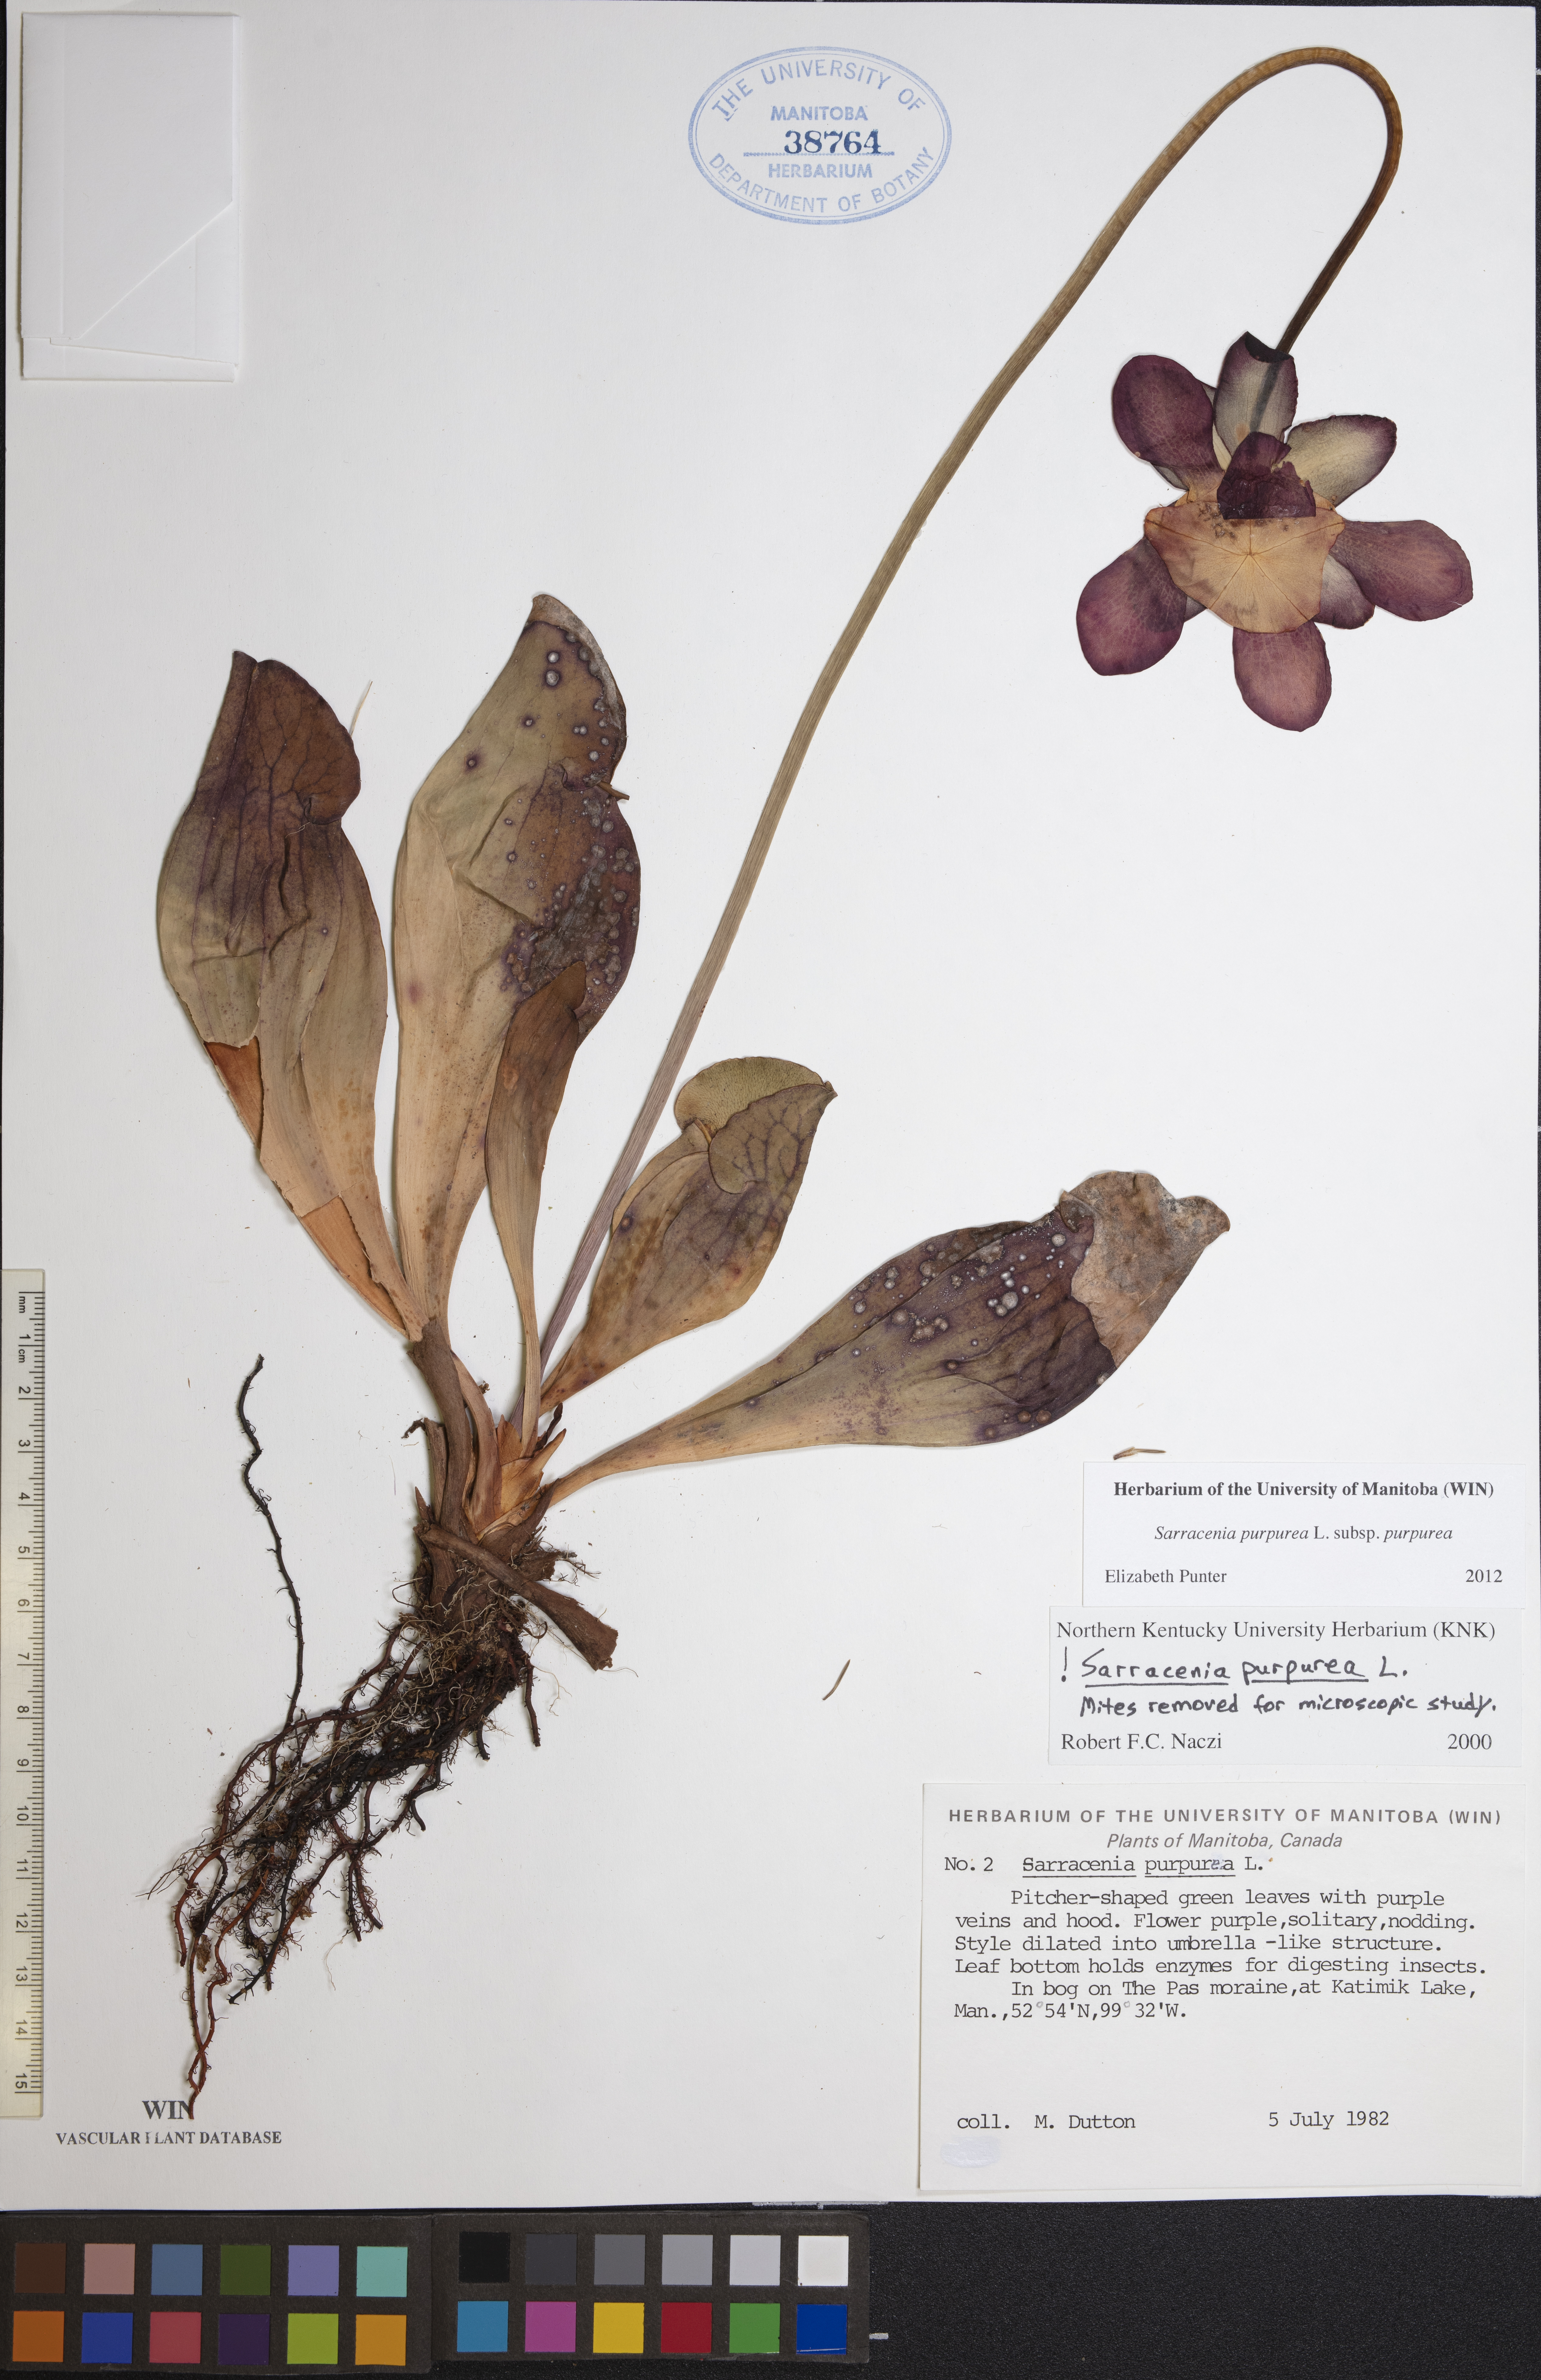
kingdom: Plantae
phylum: Tracheophyta
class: Magnoliopsida
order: Ericales
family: Sarraceniaceae
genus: Sarracenia
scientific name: Sarracenia purpurea
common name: Pitcherplant
